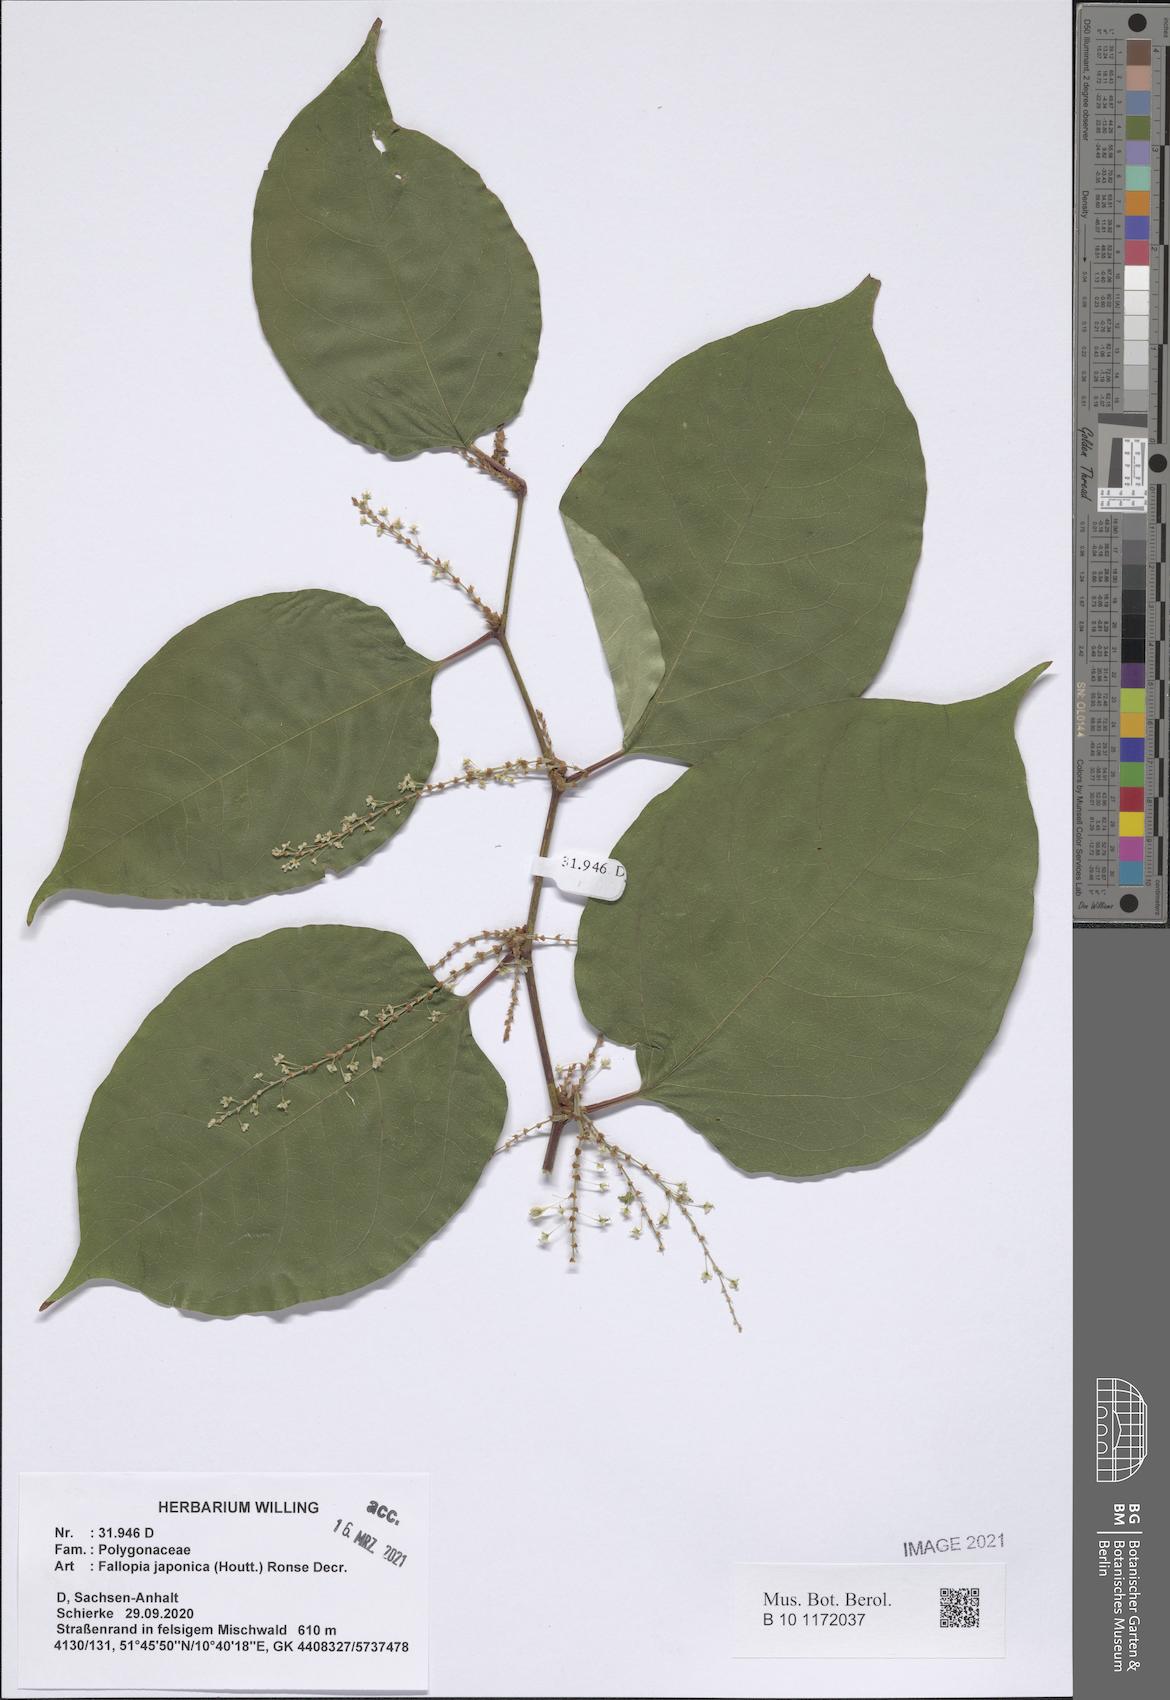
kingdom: Plantae
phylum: Tracheophyta
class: Magnoliopsida
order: Caryophyllales
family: Polygonaceae
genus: Reynoutria
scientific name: Reynoutria japonica
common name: Japanese knotweed
